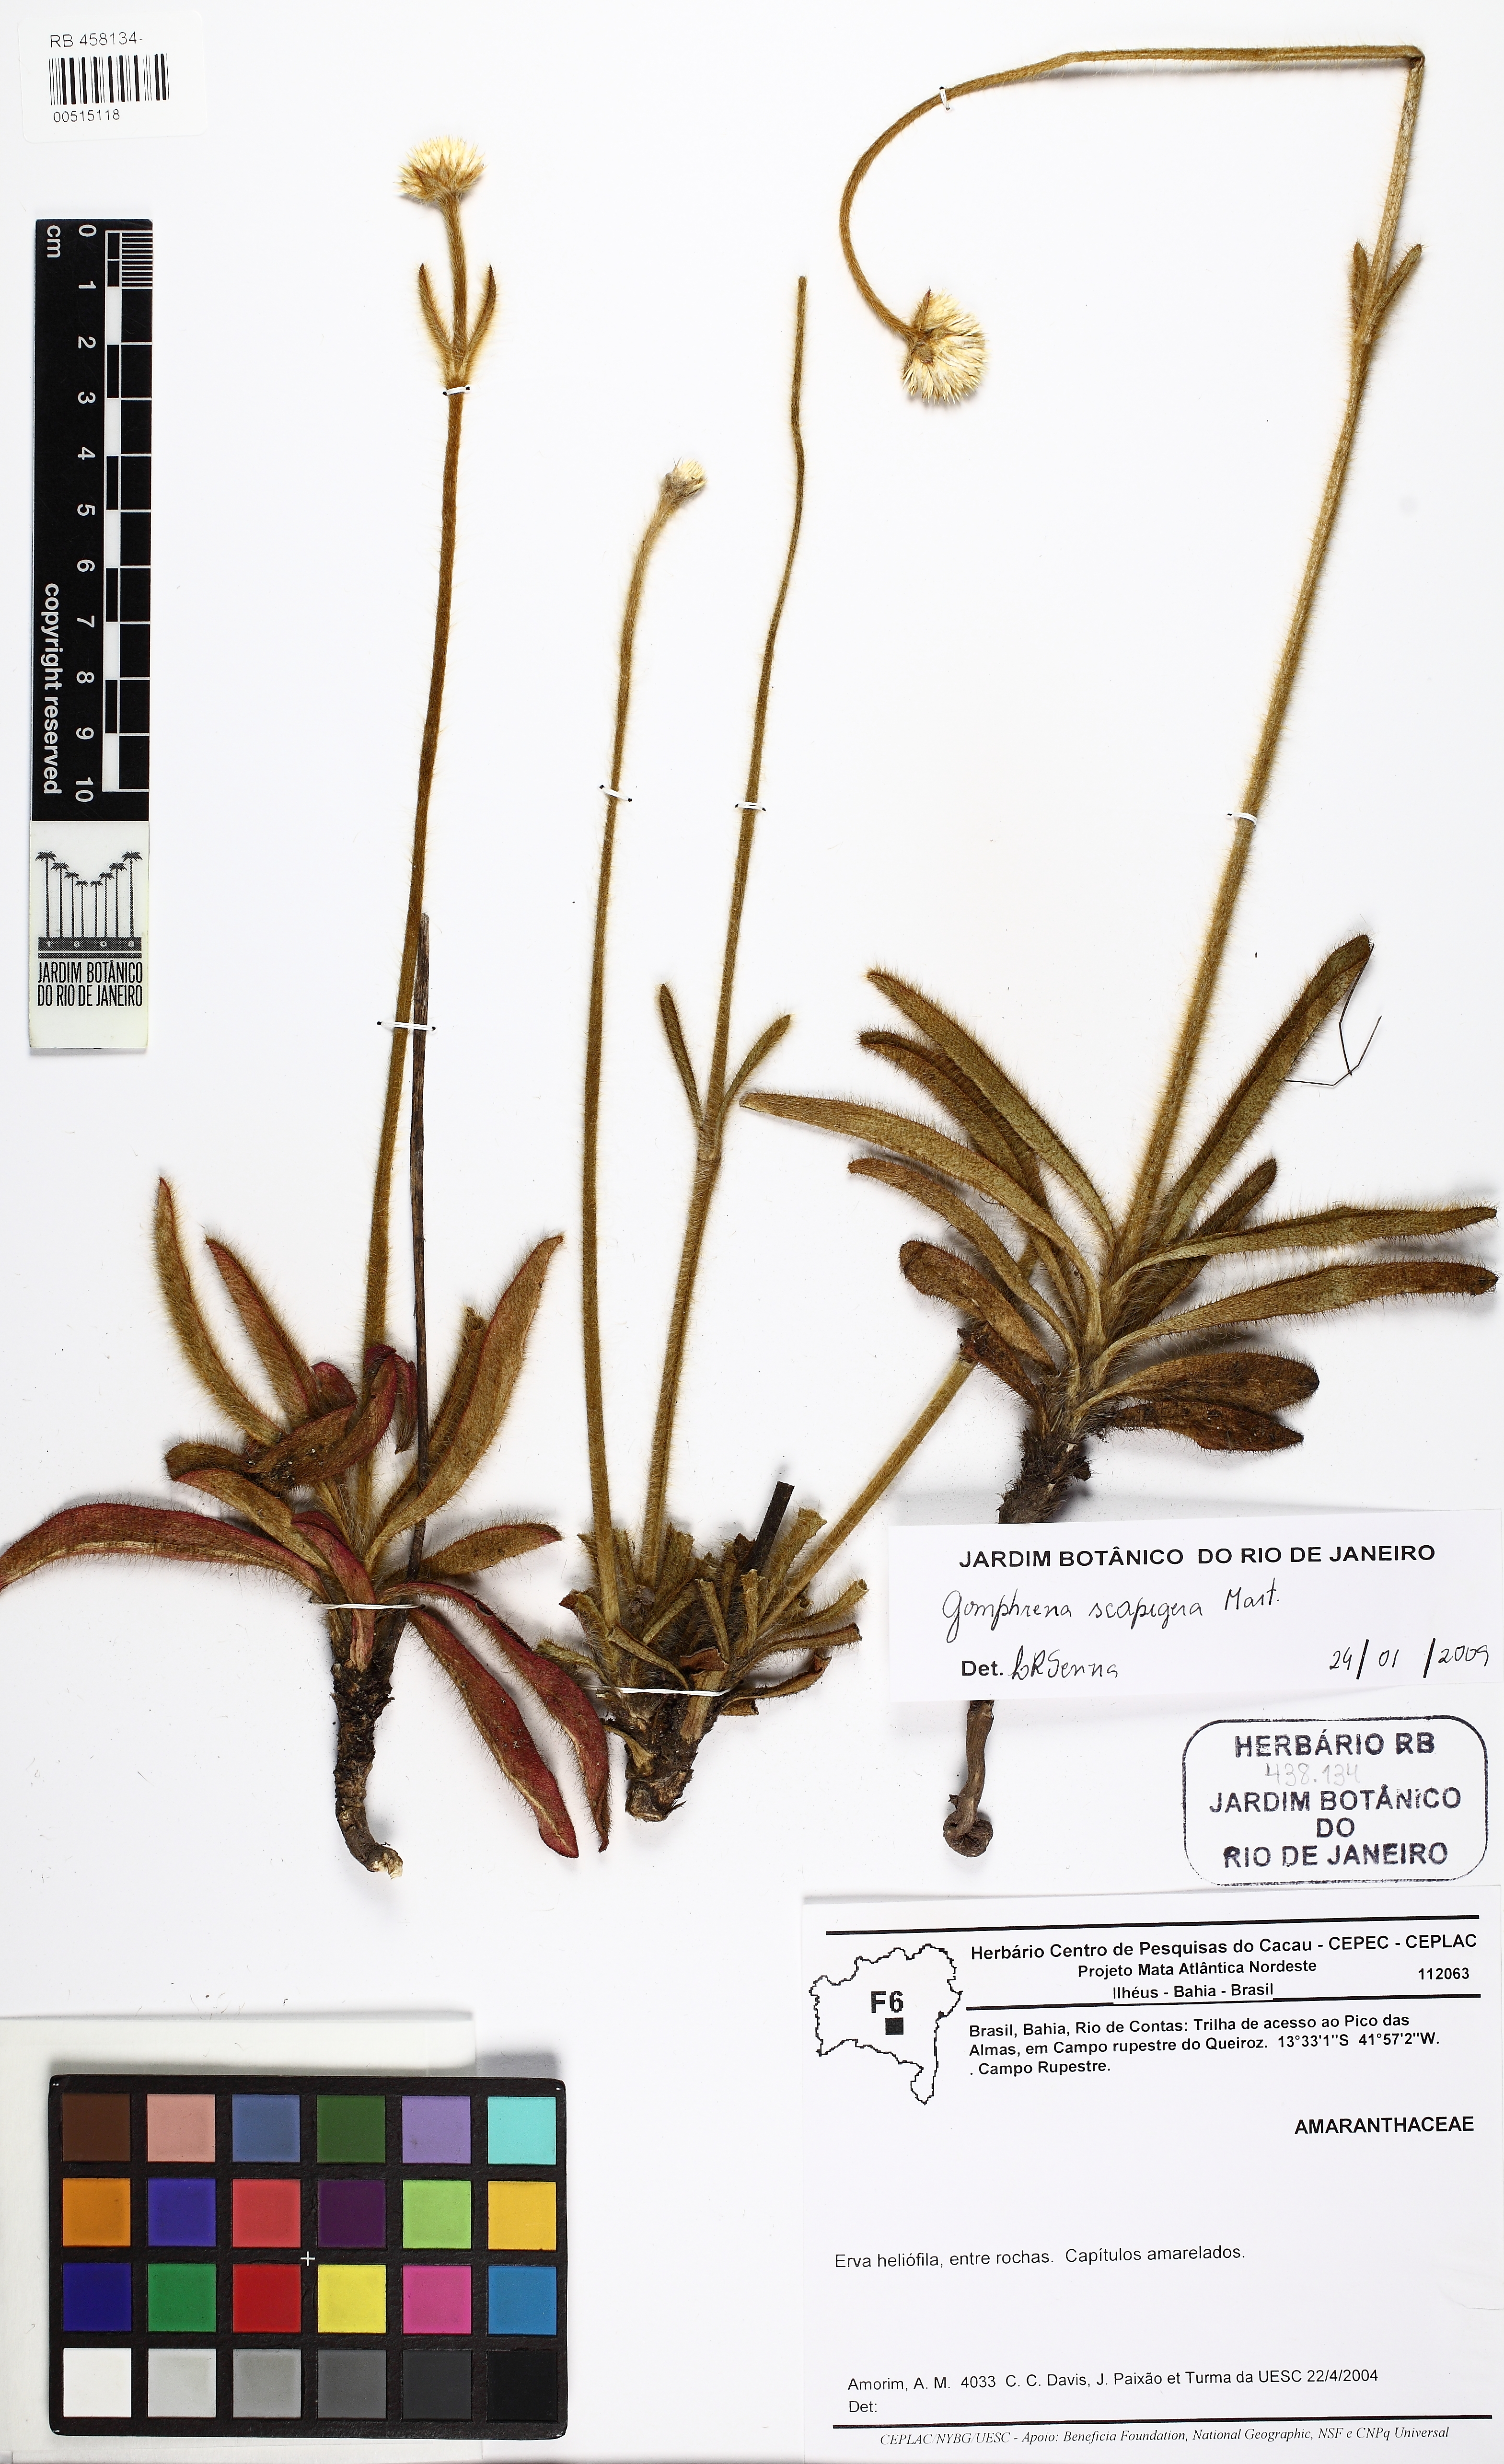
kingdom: Plantae
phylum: Tracheophyta
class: Magnoliopsida
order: Caryophyllales
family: Amaranthaceae
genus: Gomphrena
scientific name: Gomphrena scapigera
